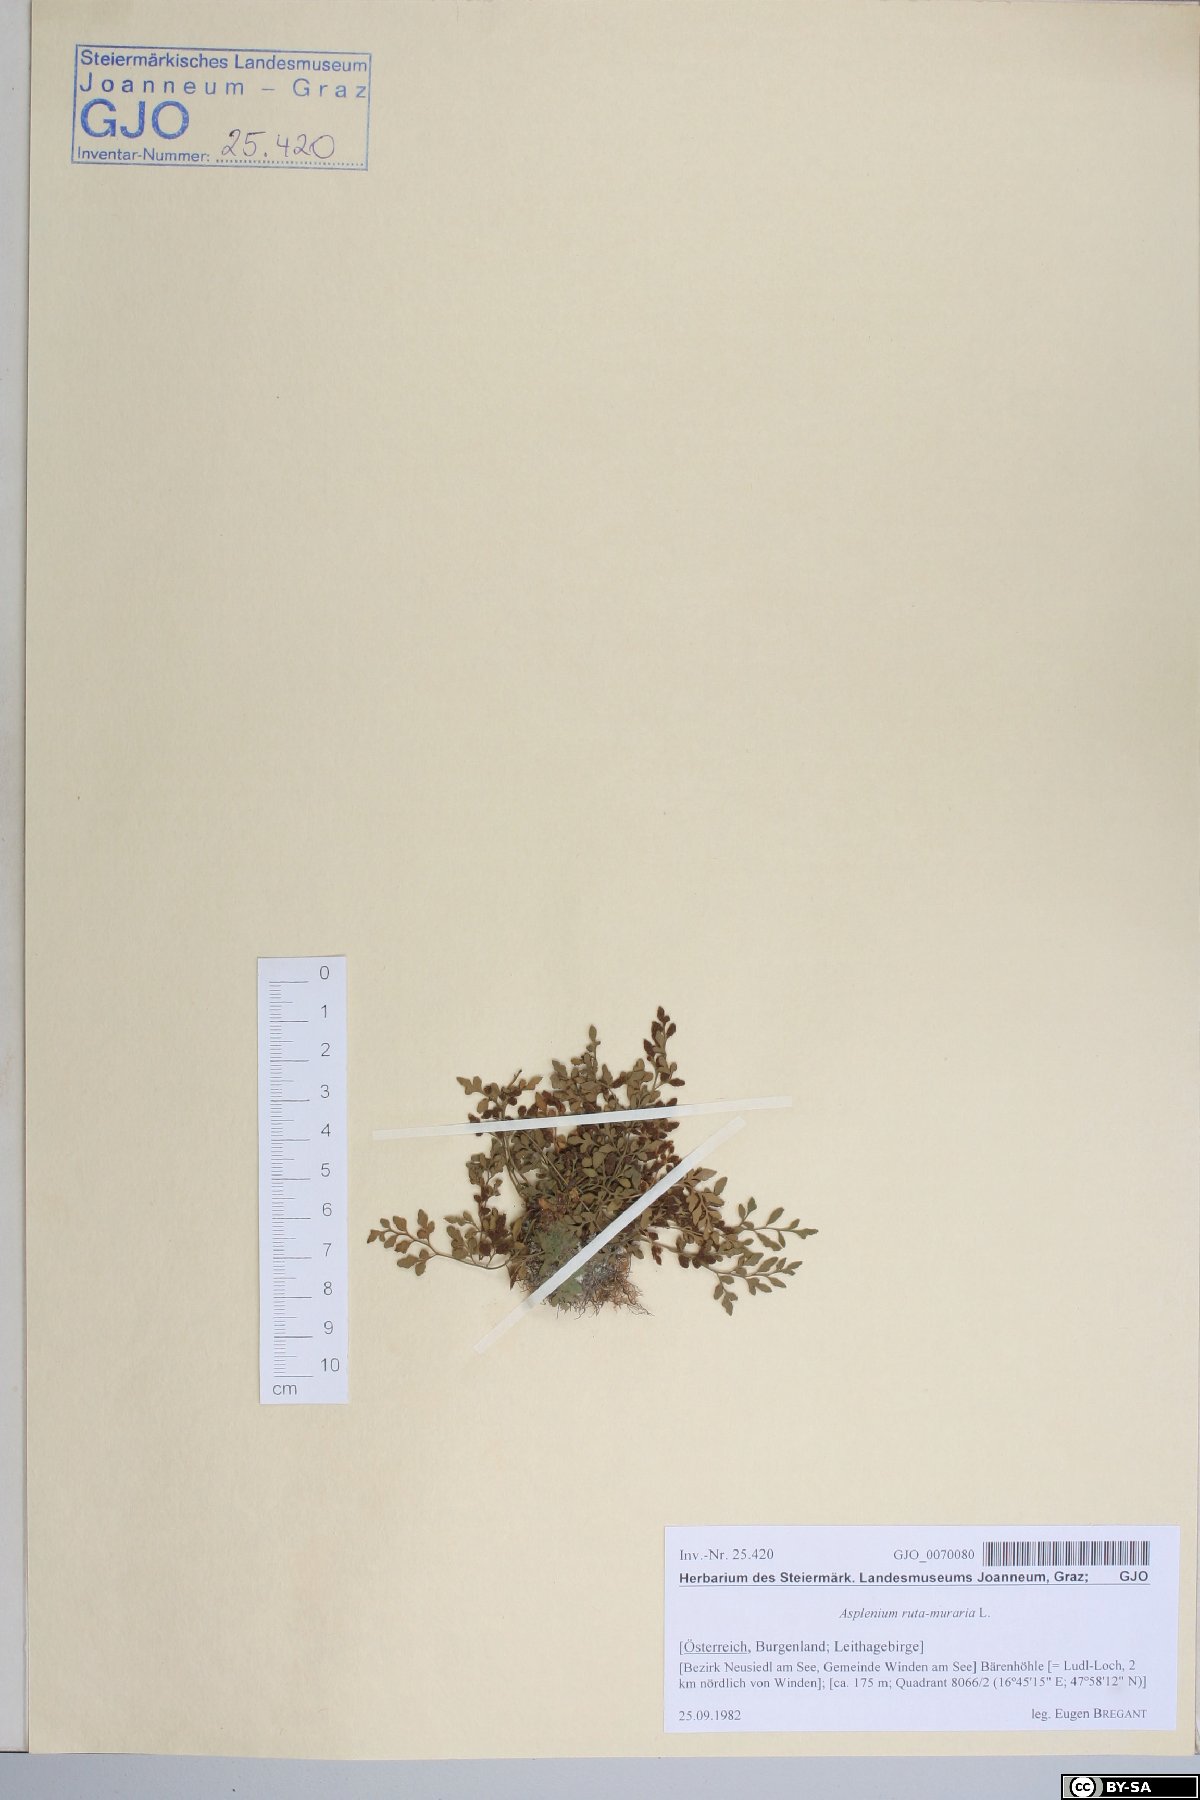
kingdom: Plantae
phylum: Tracheophyta
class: Polypodiopsida
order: Polypodiales
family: Aspleniaceae
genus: Asplenium
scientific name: Asplenium ruta-muraria
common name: Wall-rue
